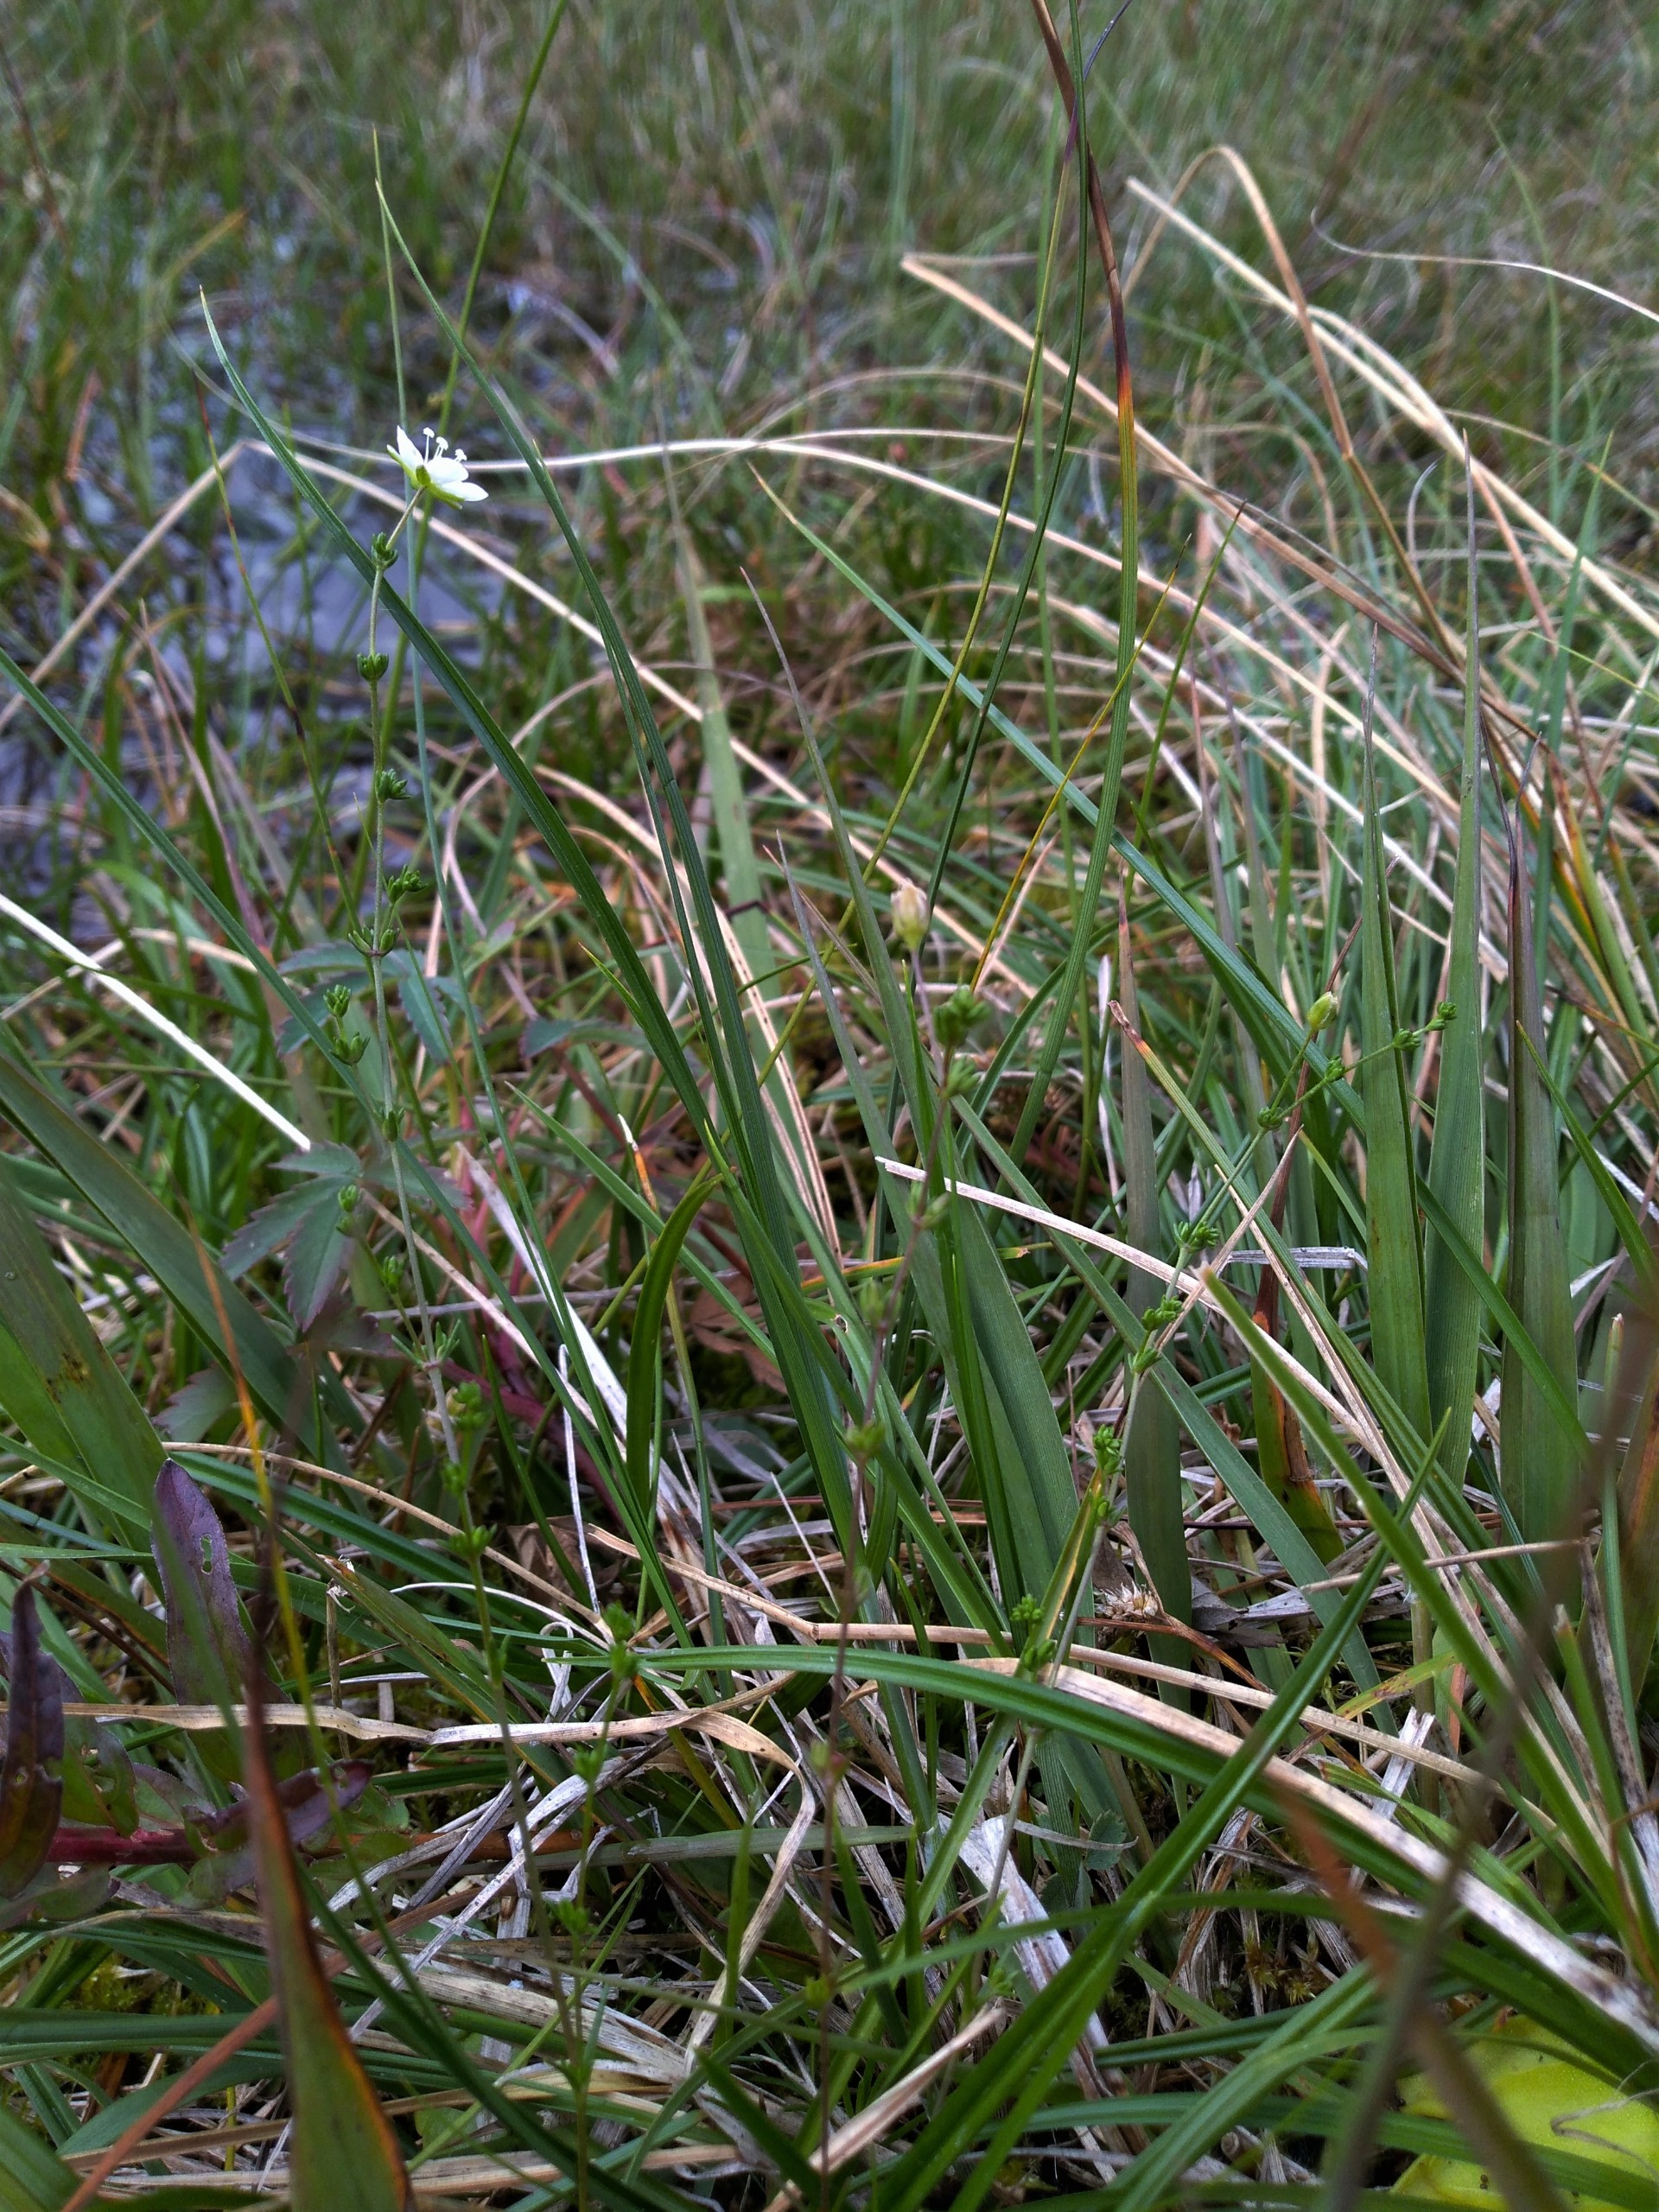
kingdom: Plantae
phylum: Tracheophyta
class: Magnoliopsida
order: Caryophyllales
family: Caryophyllaceae
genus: Sagina
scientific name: Sagina nodosa
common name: Knude-firling
